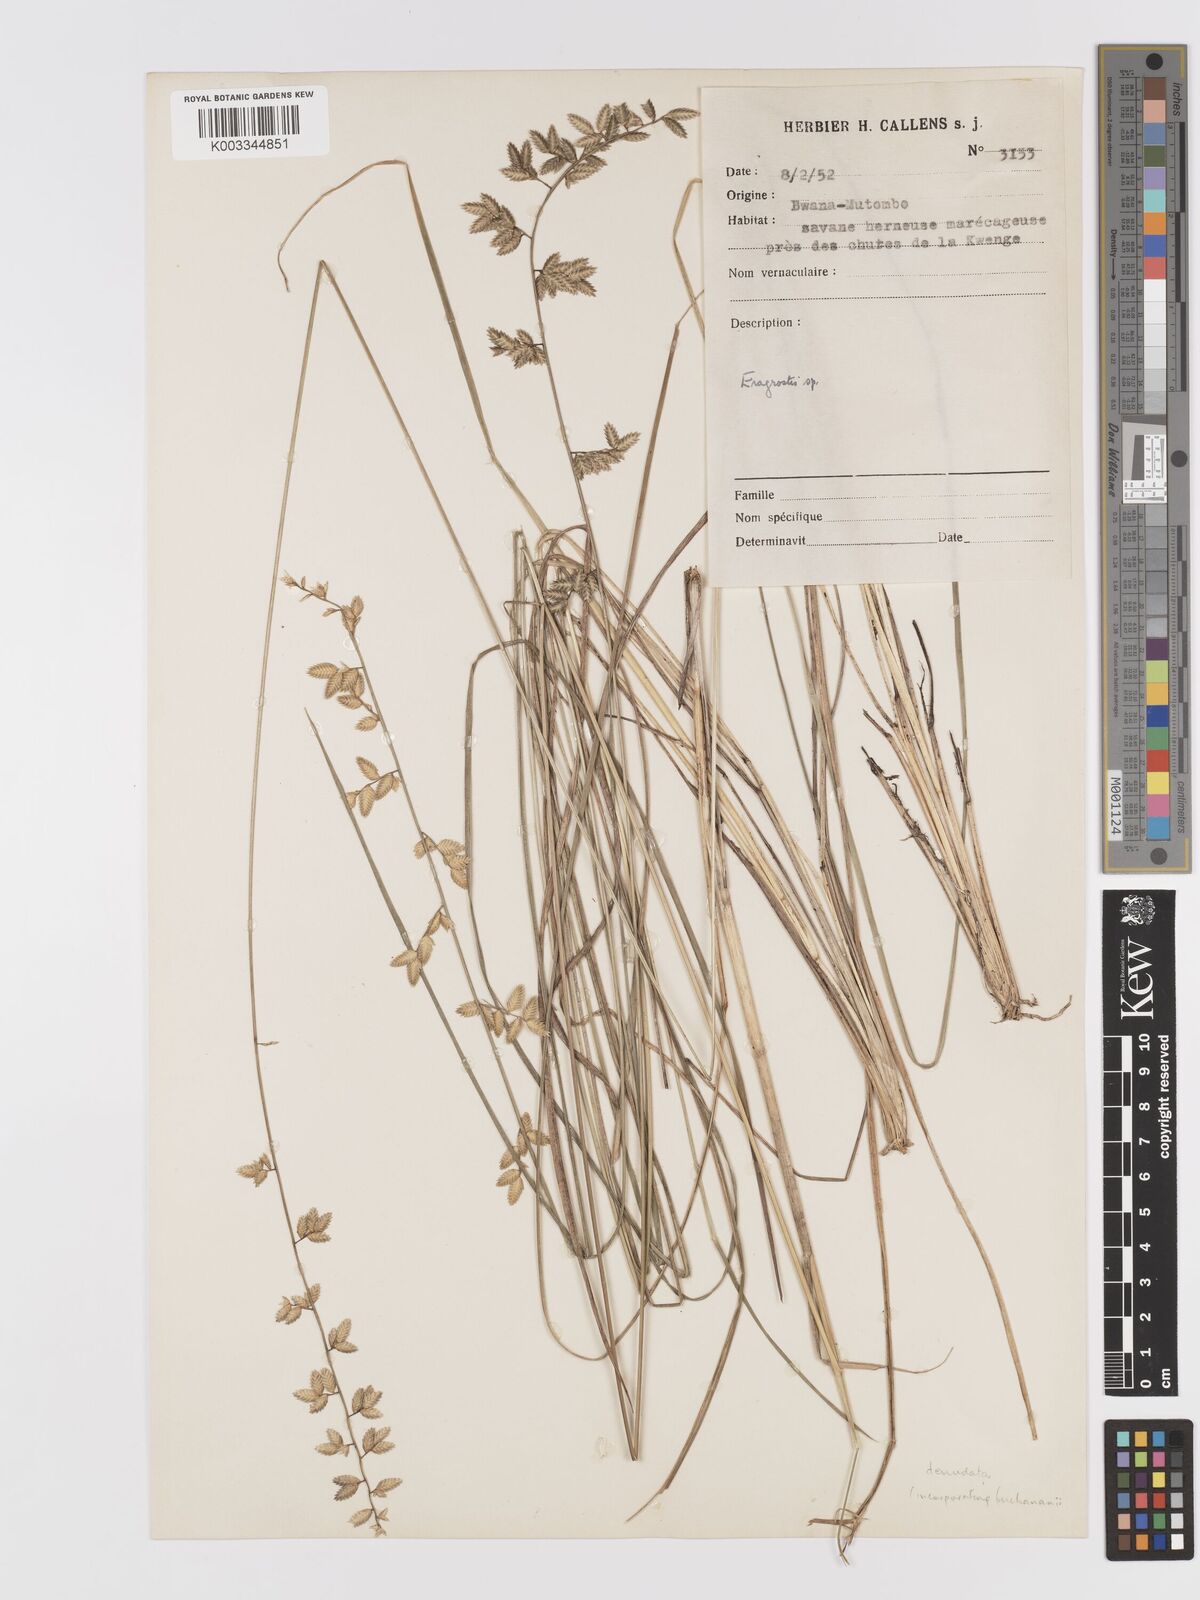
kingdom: Plantae
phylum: Tracheophyta
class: Liliopsida
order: Poales
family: Poaceae
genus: Eragrostis
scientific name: Eragrostis nindensis
